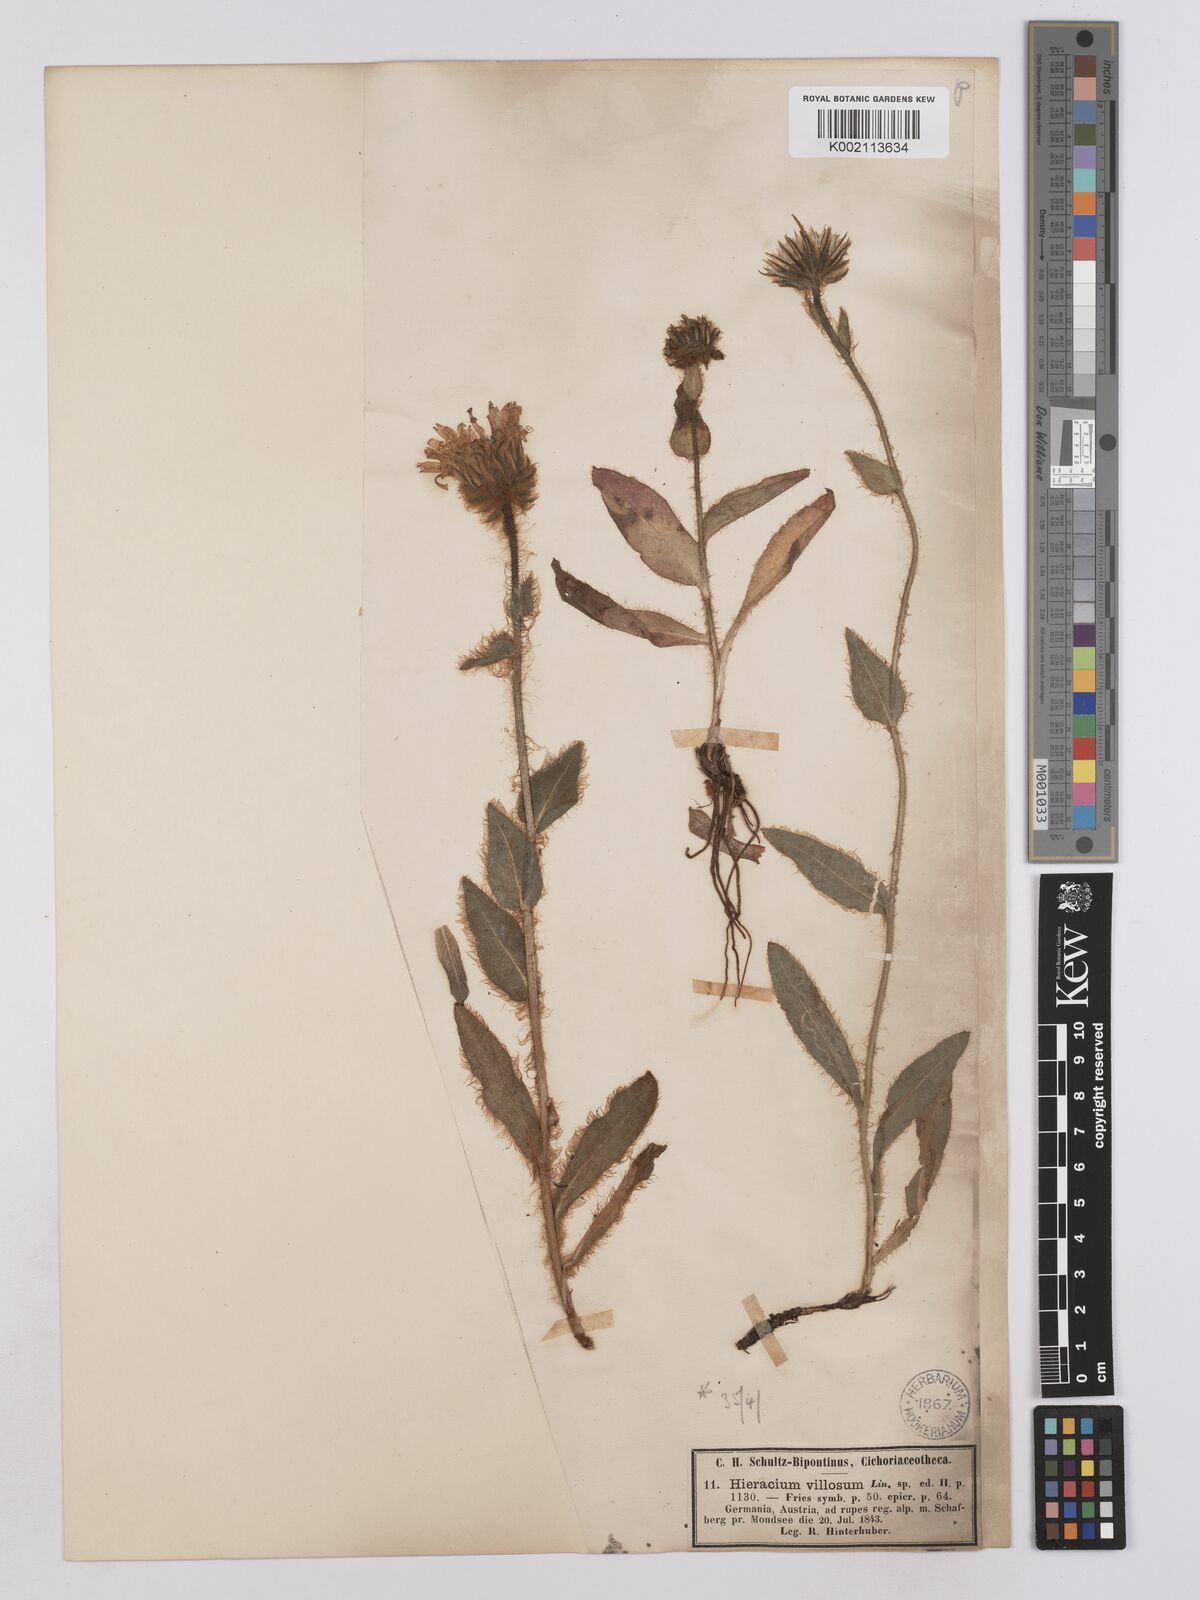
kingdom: Plantae
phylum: Tracheophyta
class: Magnoliopsida
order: Asterales
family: Asteraceae
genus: Hieracium
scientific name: Hieracium villosum
